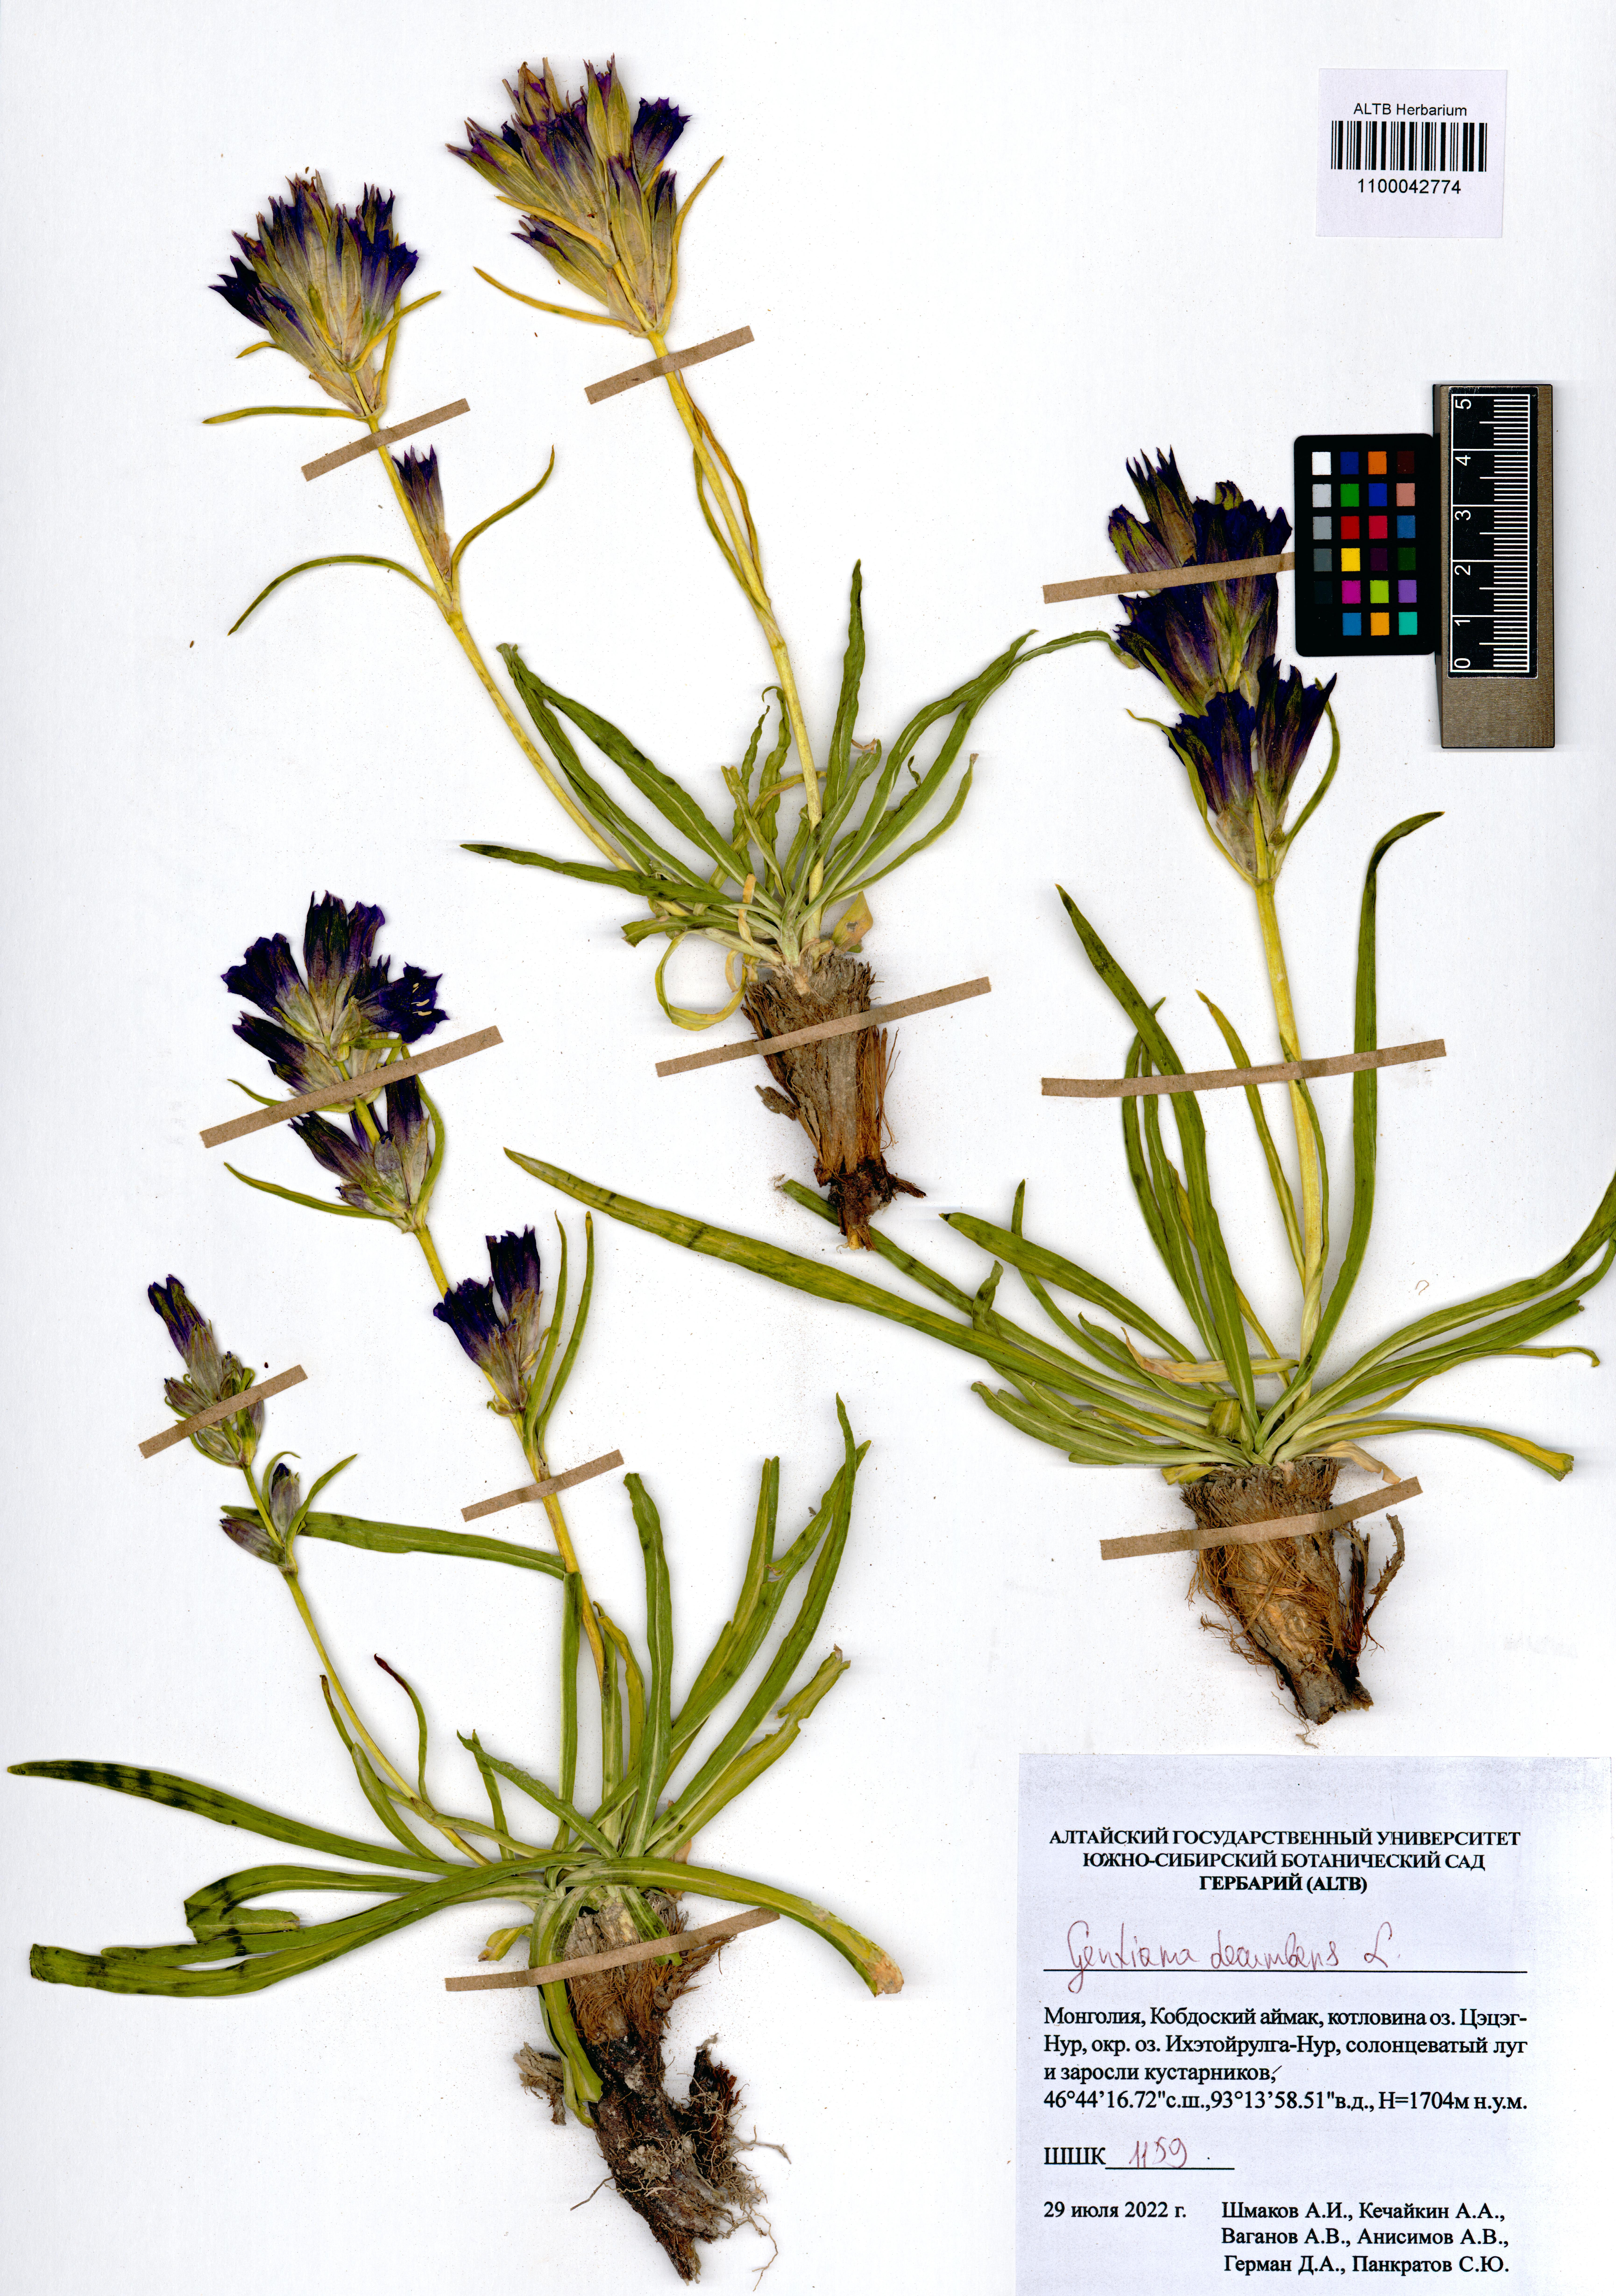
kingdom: Plantae
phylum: Tracheophyta
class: Magnoliopsida
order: Gentianales
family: Gentianaceae
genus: Gentiana
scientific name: Gentiana decumbens
